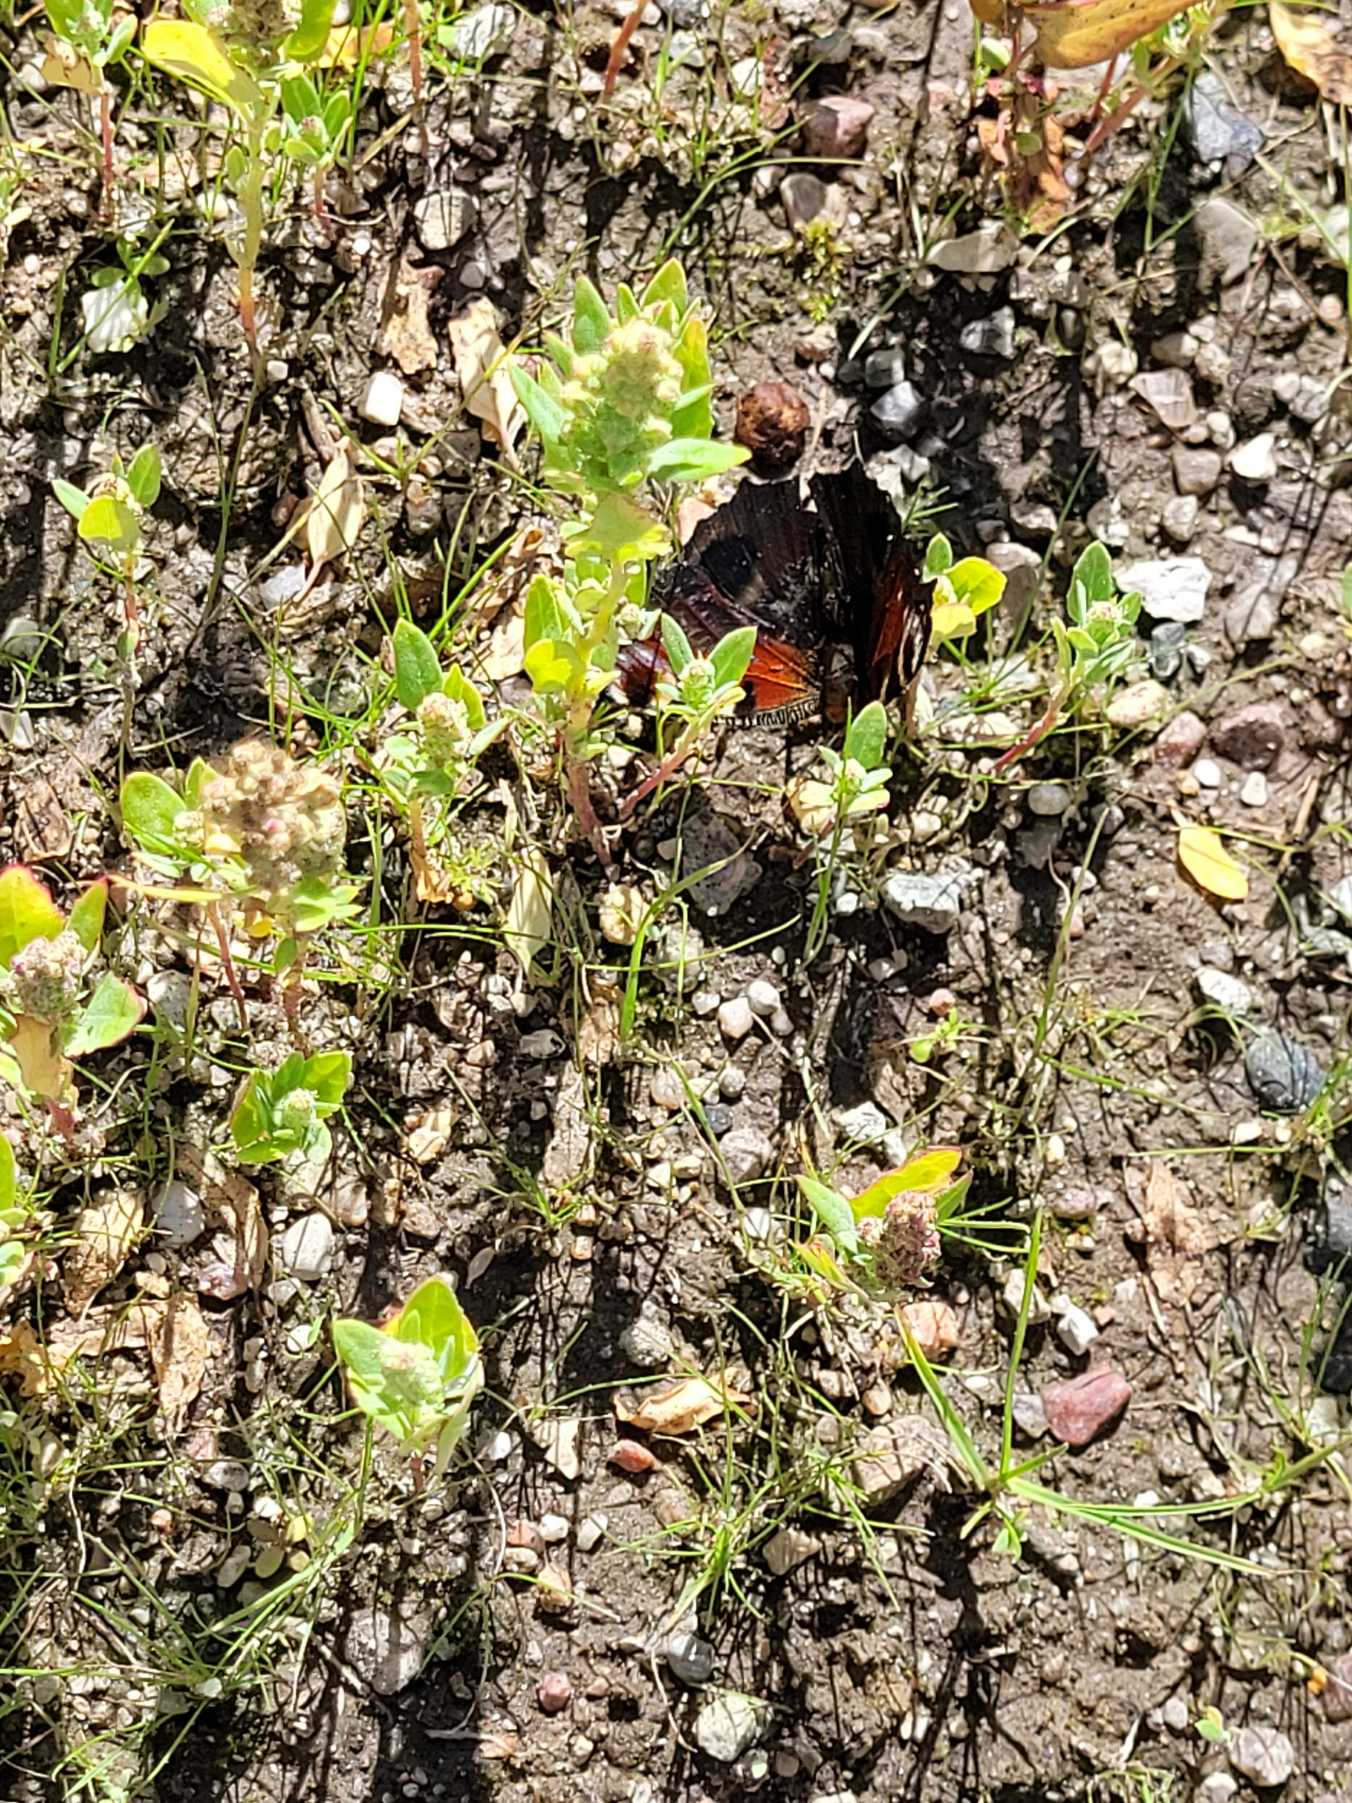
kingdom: Animalia
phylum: Arthropoda
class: Insecta
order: Lepidoptera
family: Nymphalidae
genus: Aglais
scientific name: Aglais io
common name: Dagpåfugleøje
